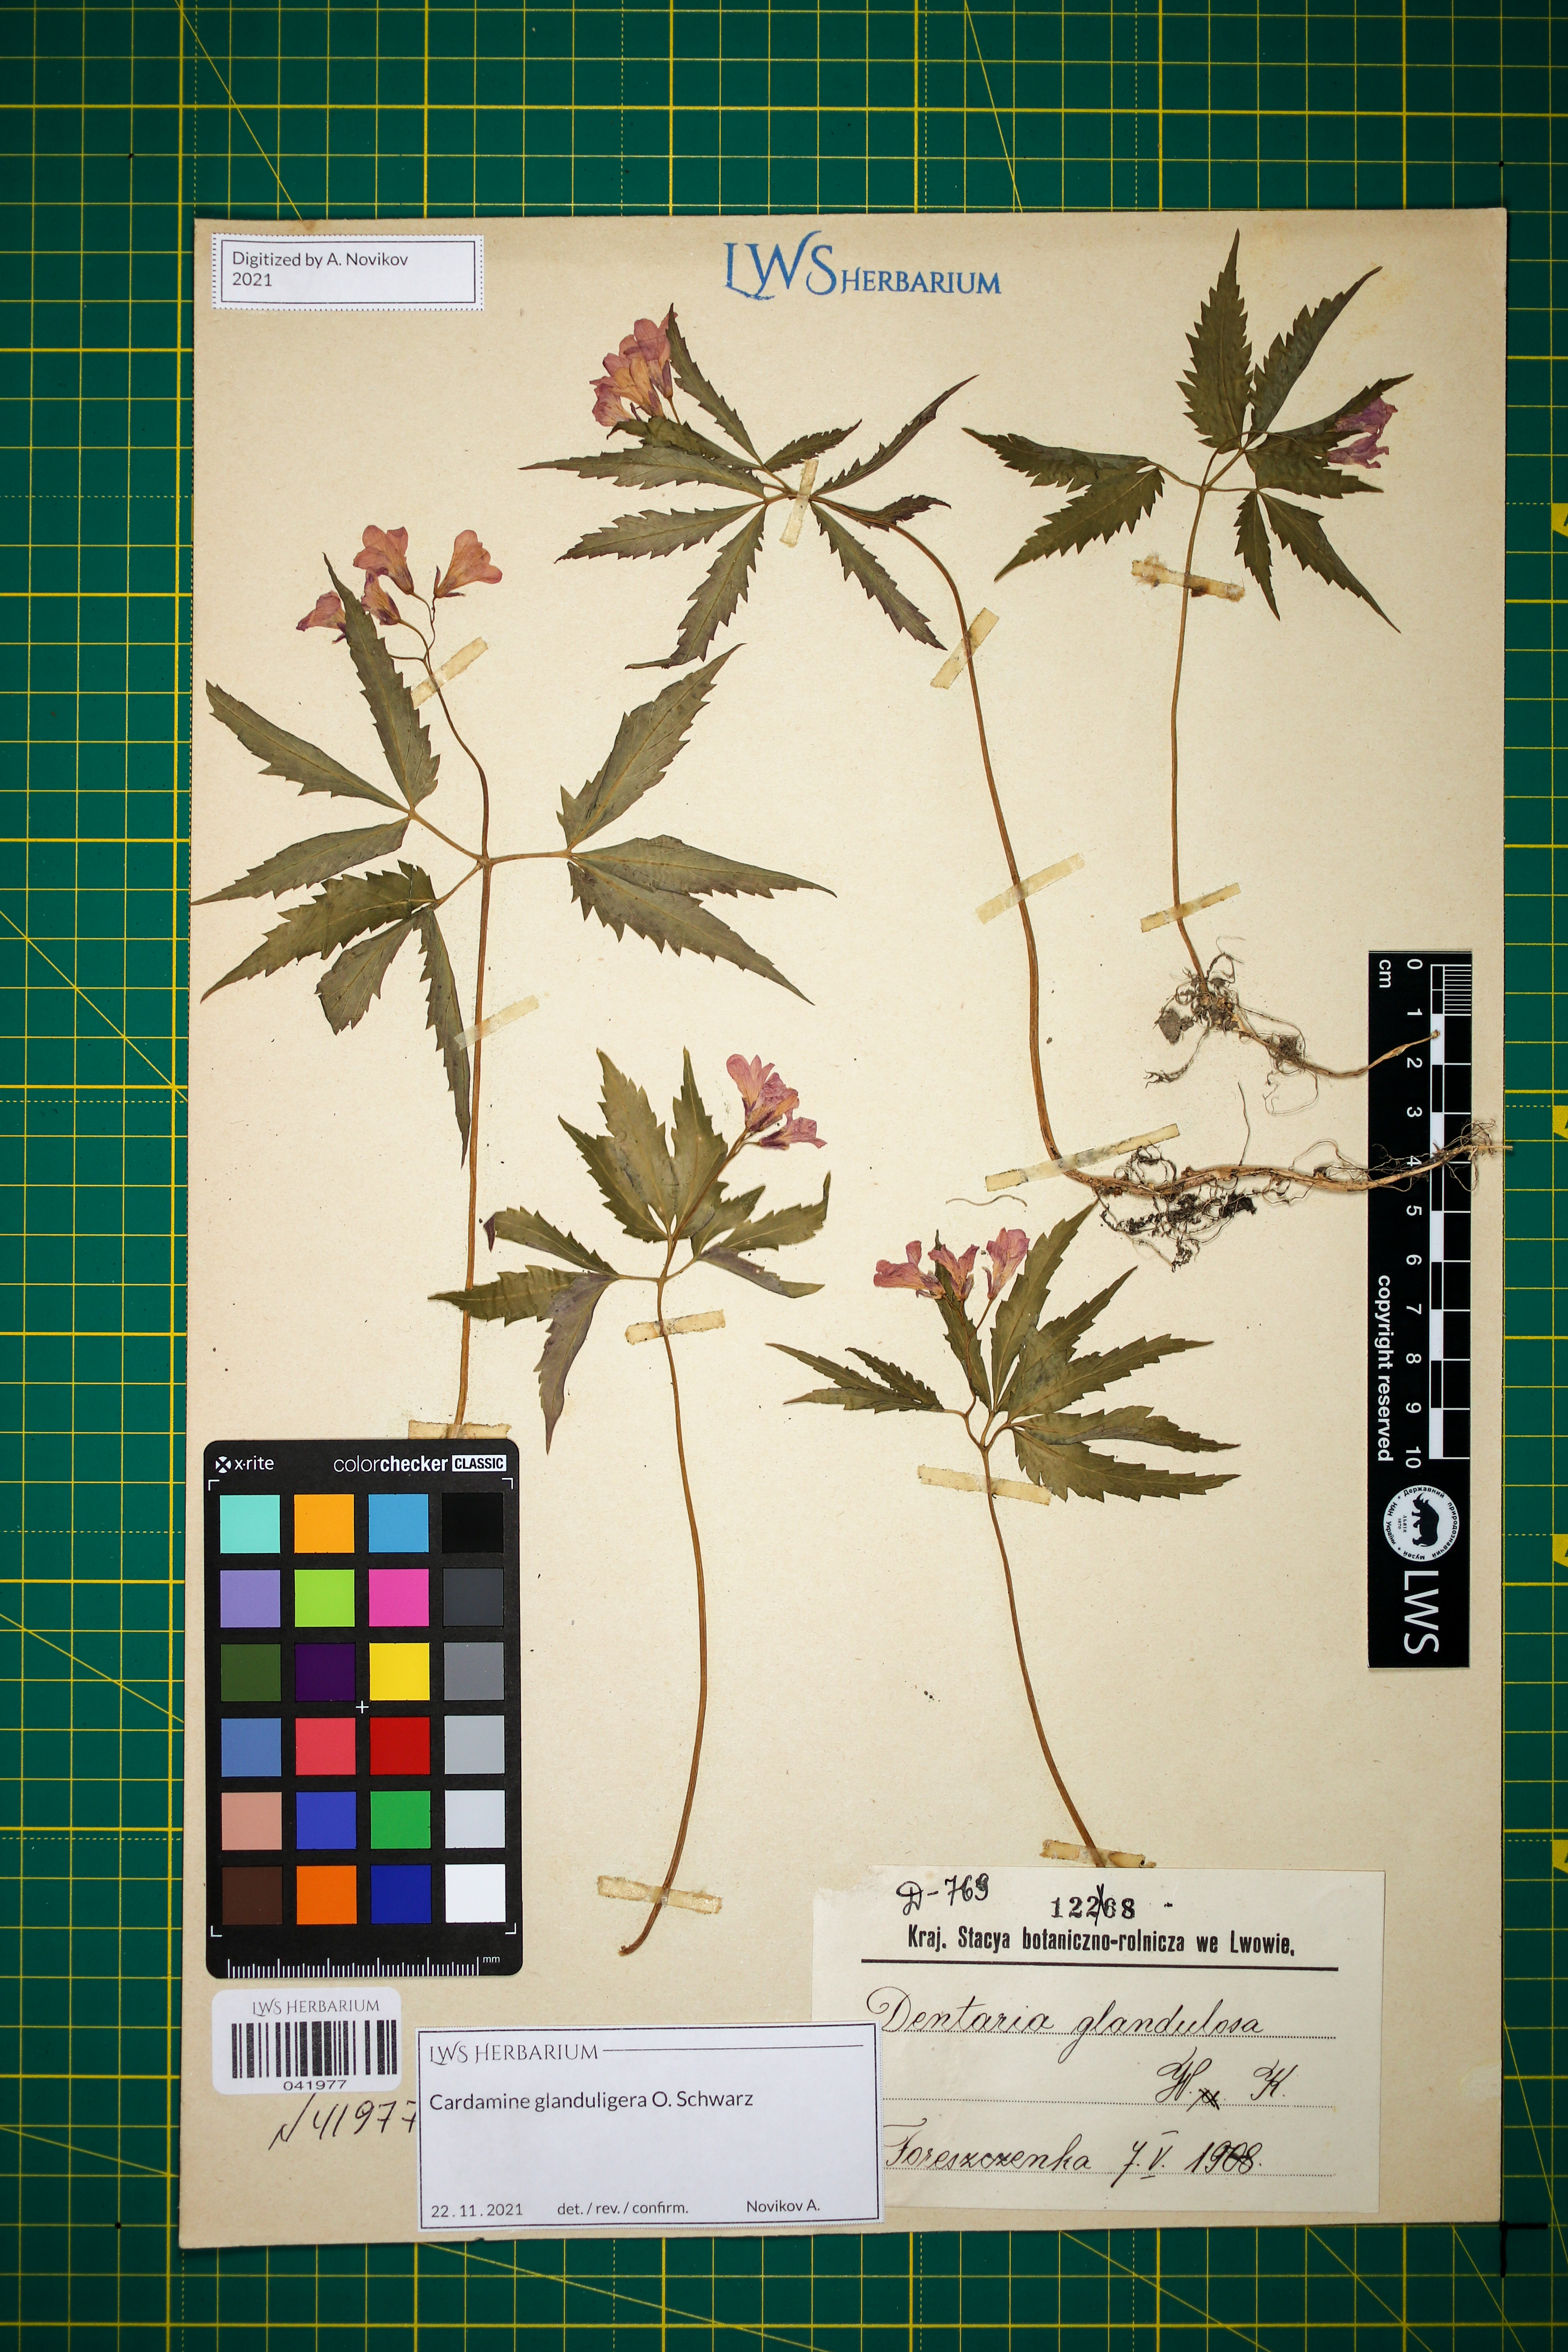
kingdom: Plantae
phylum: Tracheophyta
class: Magnoliopsida
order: Brassicales
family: Brassicaceae
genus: Cardamine
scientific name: Cardamine glanduligera
